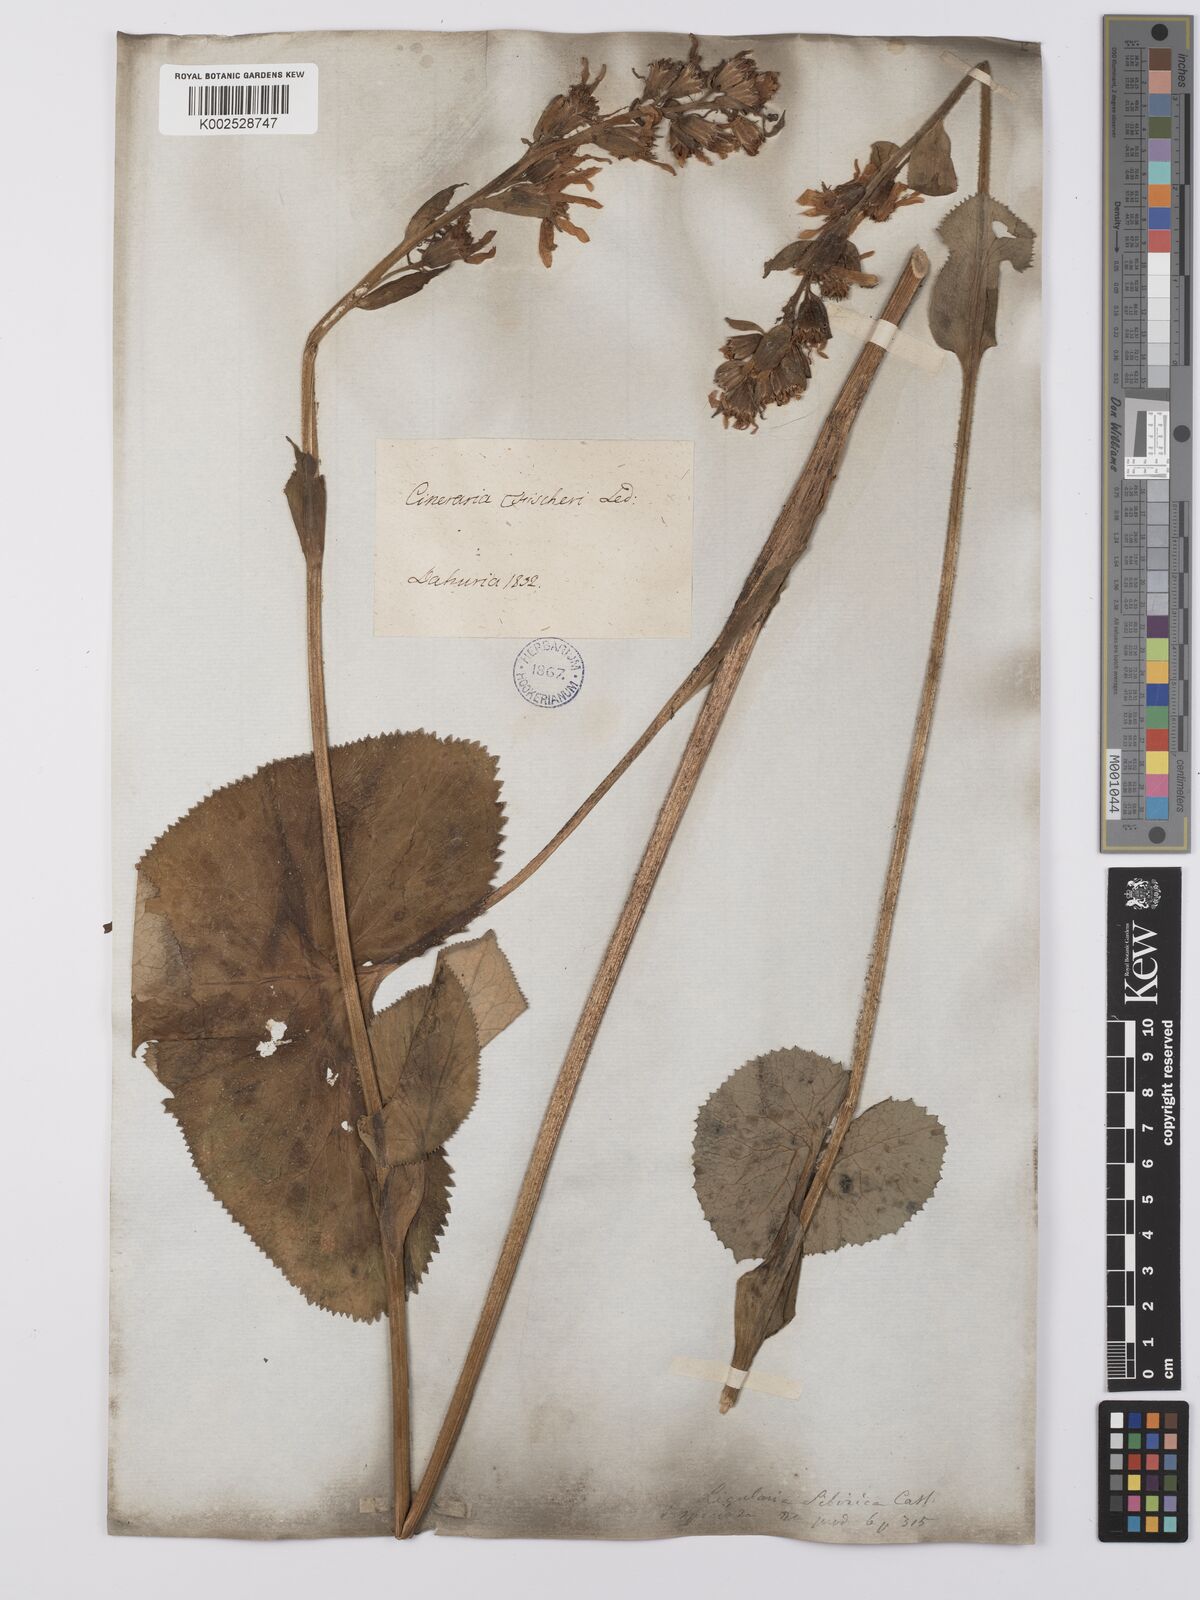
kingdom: Plantae
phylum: Tracheophyta
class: Magnoliopsida
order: Asterales
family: Asteraceae
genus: Ligularia
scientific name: Ligularia fischeri
